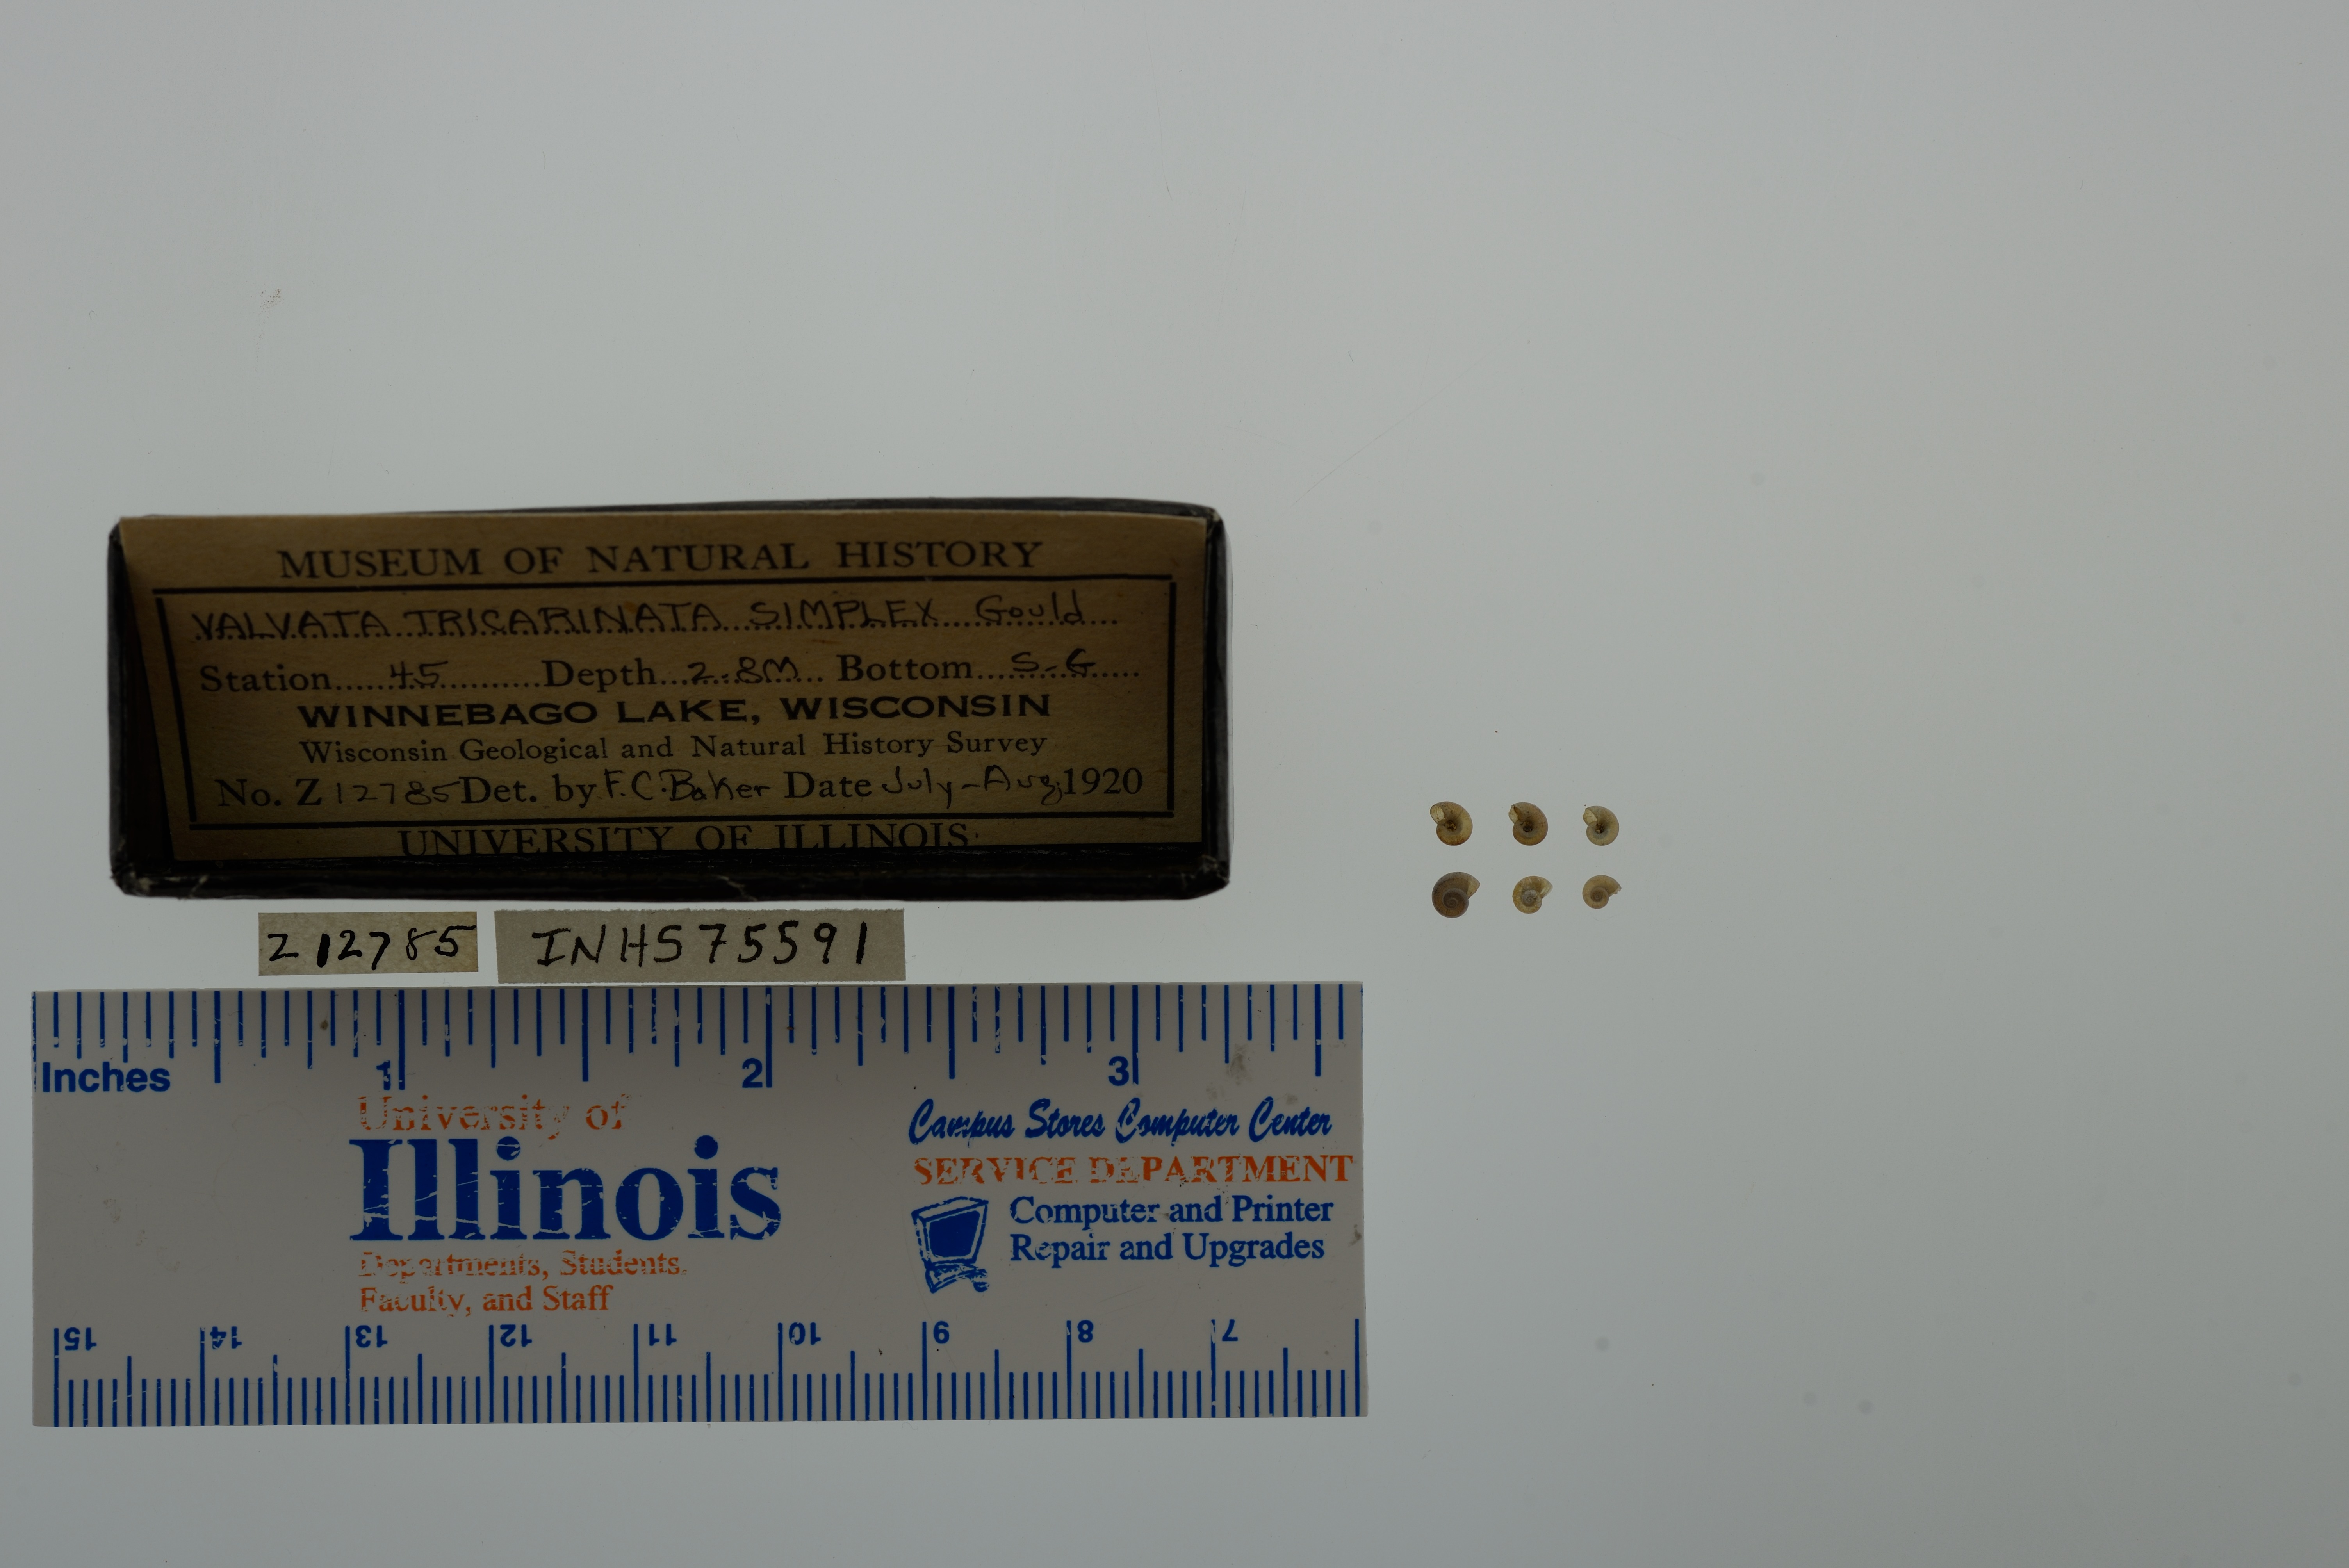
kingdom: Animalia
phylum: Mollusca
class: Gastropoda
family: Valvatidae
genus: Valvata
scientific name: Valvata tricarinata
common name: Three-ridge valvata
